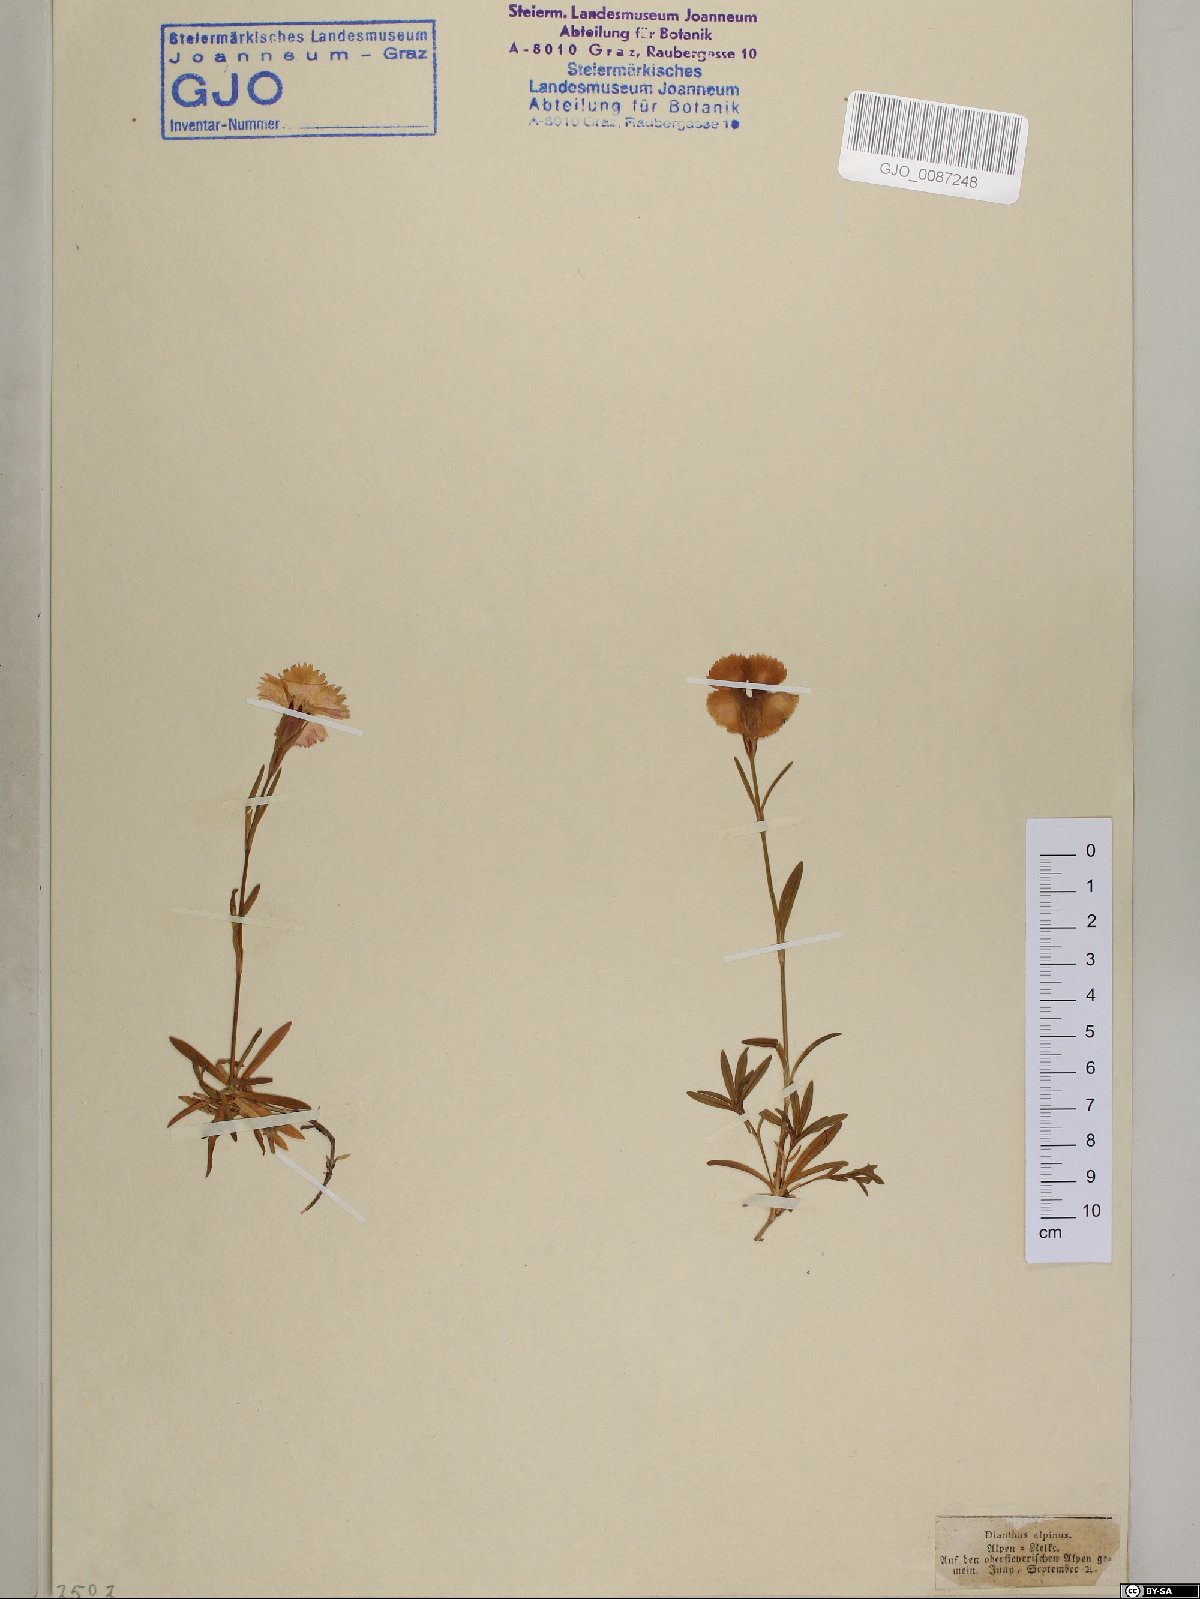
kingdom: Plantae
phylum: Tracheophyta
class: Magnoliopsida
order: Caryophyllales
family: Caryophyllaceae
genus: Dianthus
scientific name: Dianthus alpinus
